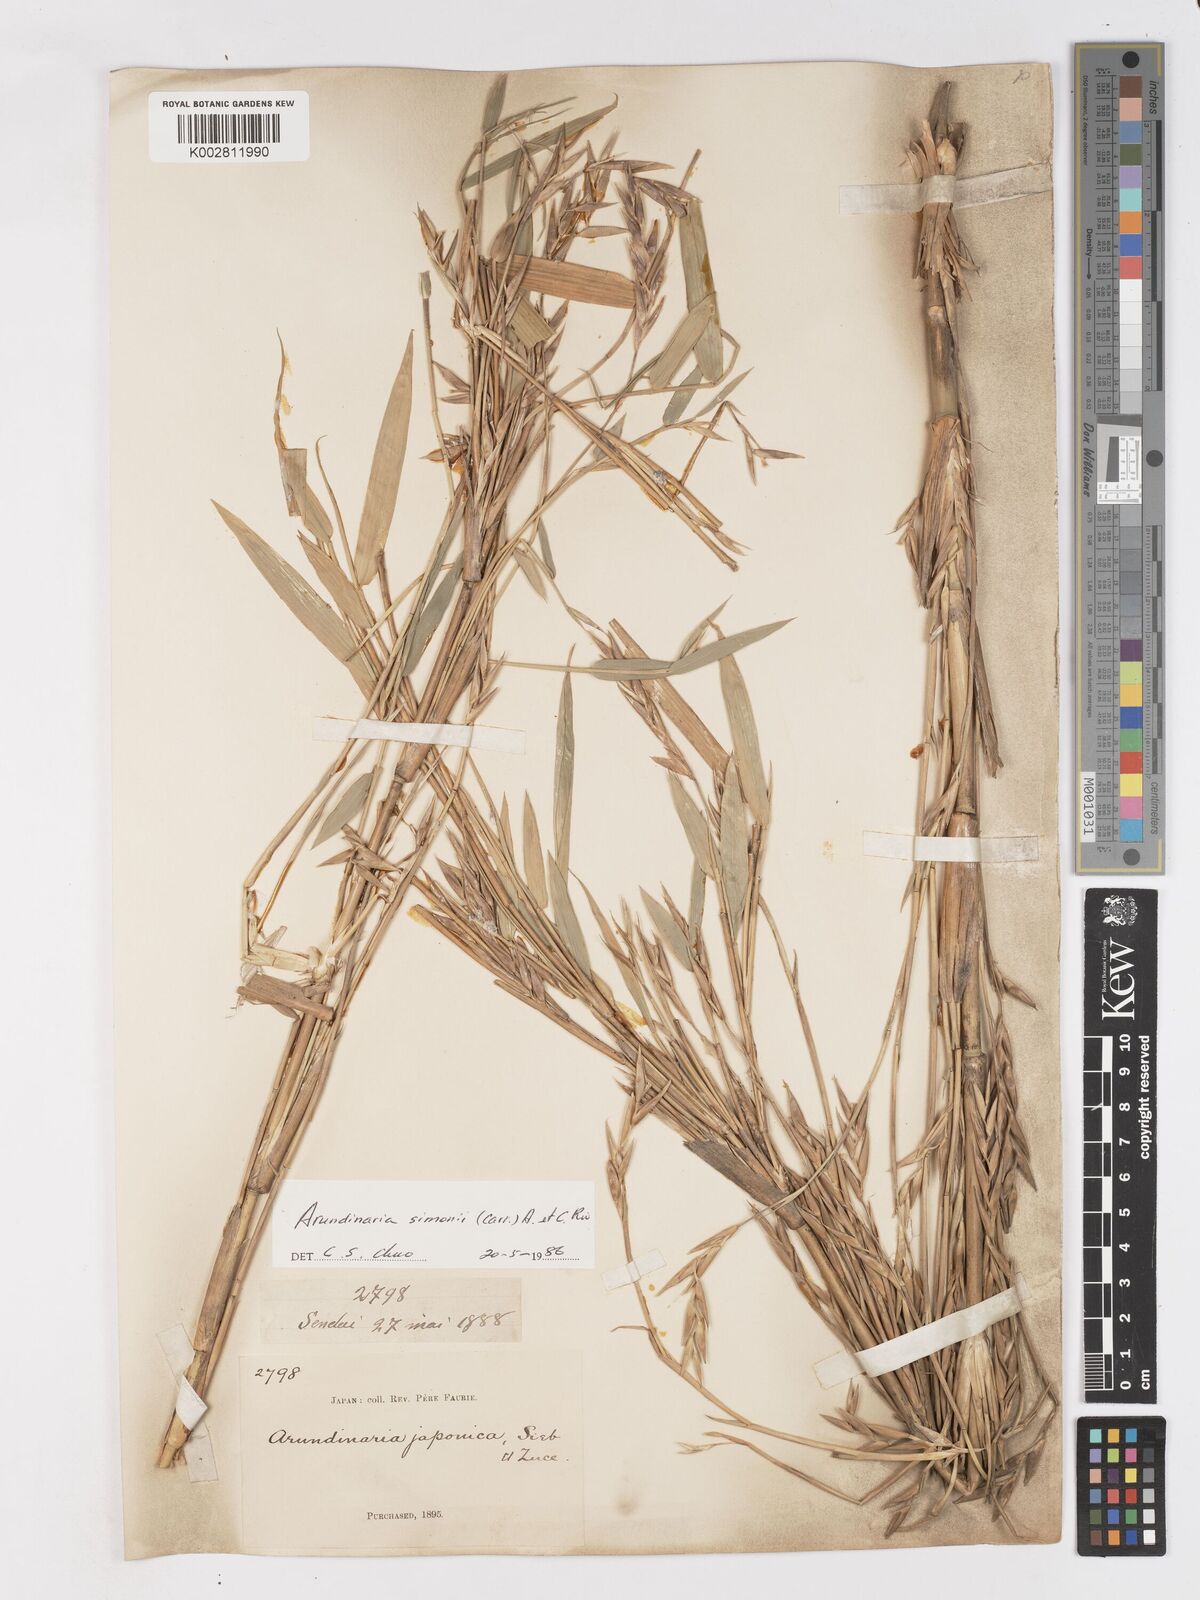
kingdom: Plantae
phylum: Tracheophyta
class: Liliopsida
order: Poales
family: Poaceae
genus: Pleioblastus
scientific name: Pleioblastus simonii
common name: Simon bamboo
